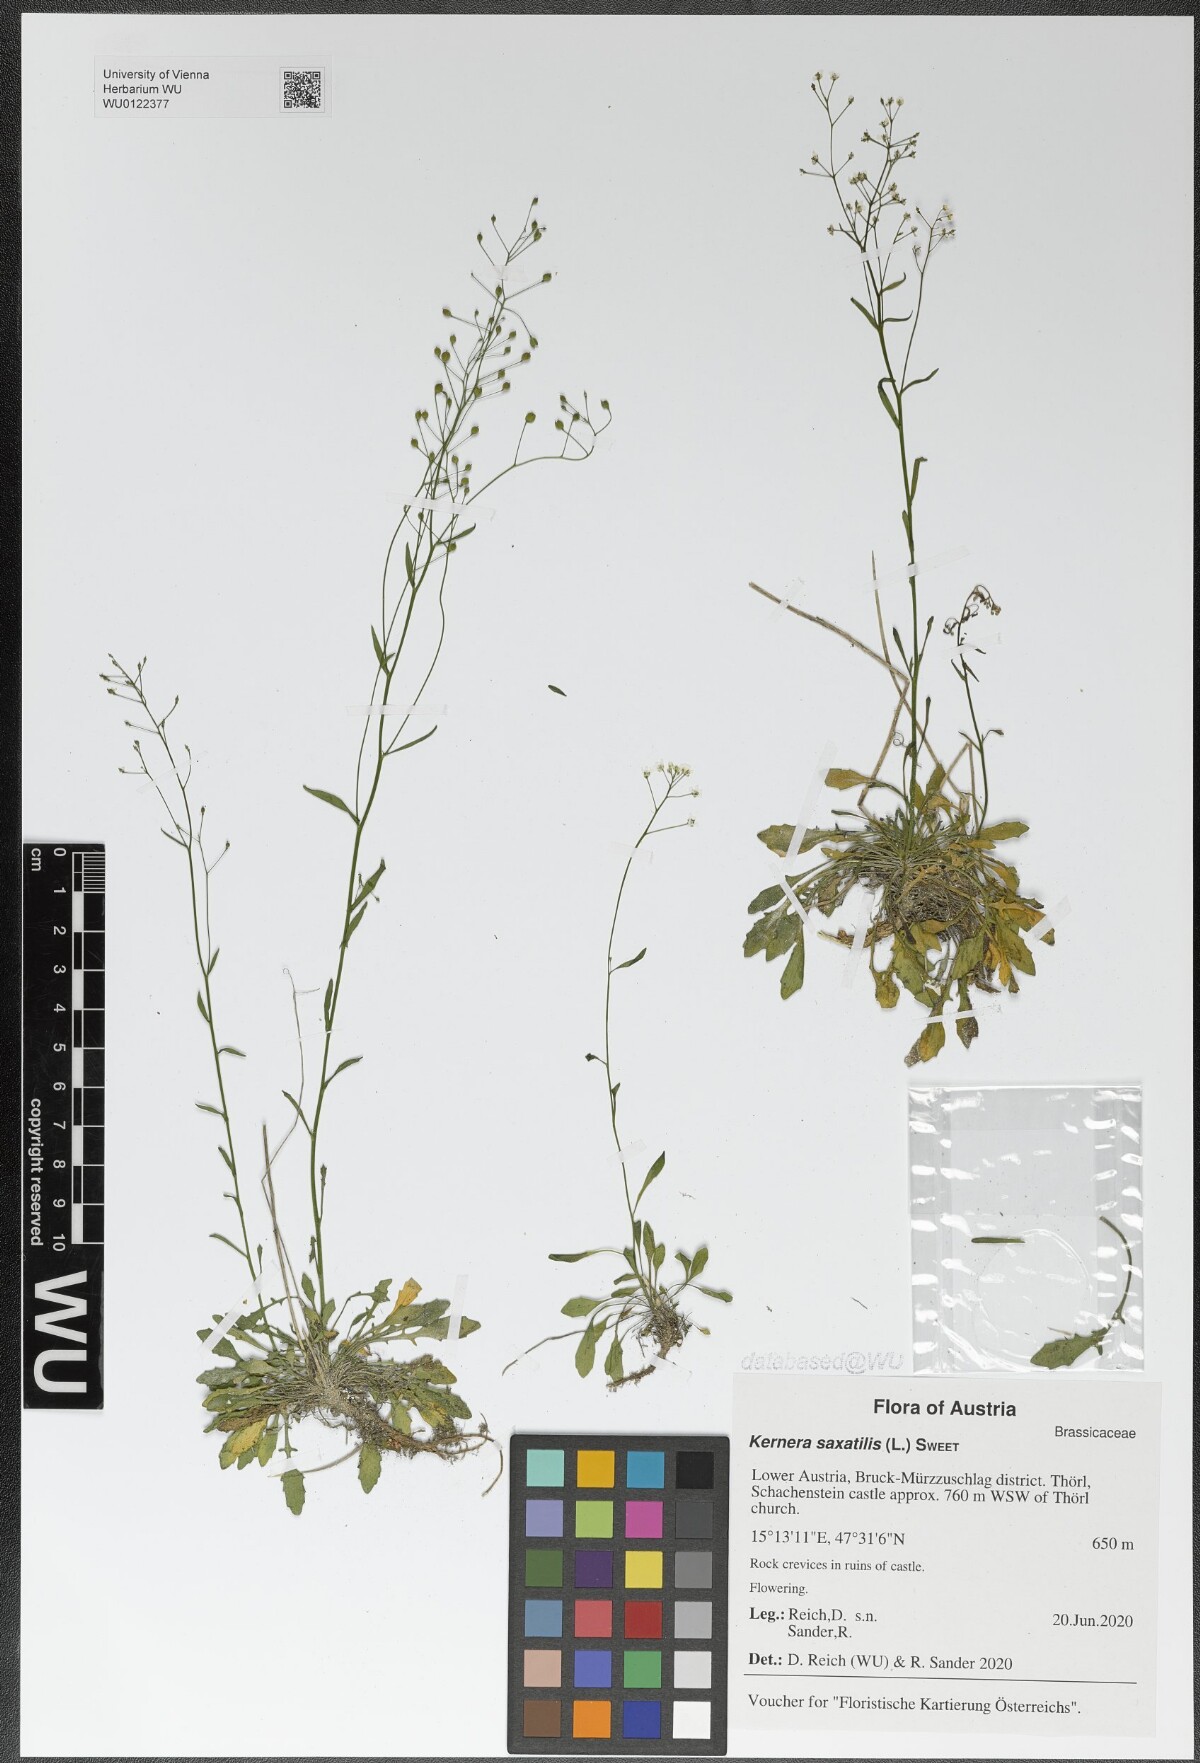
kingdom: Plantae
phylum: Tracheophyta
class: Magnoliopsida
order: Brassicales
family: Brassicaceae
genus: Kernera
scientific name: Kernera saxatilis
